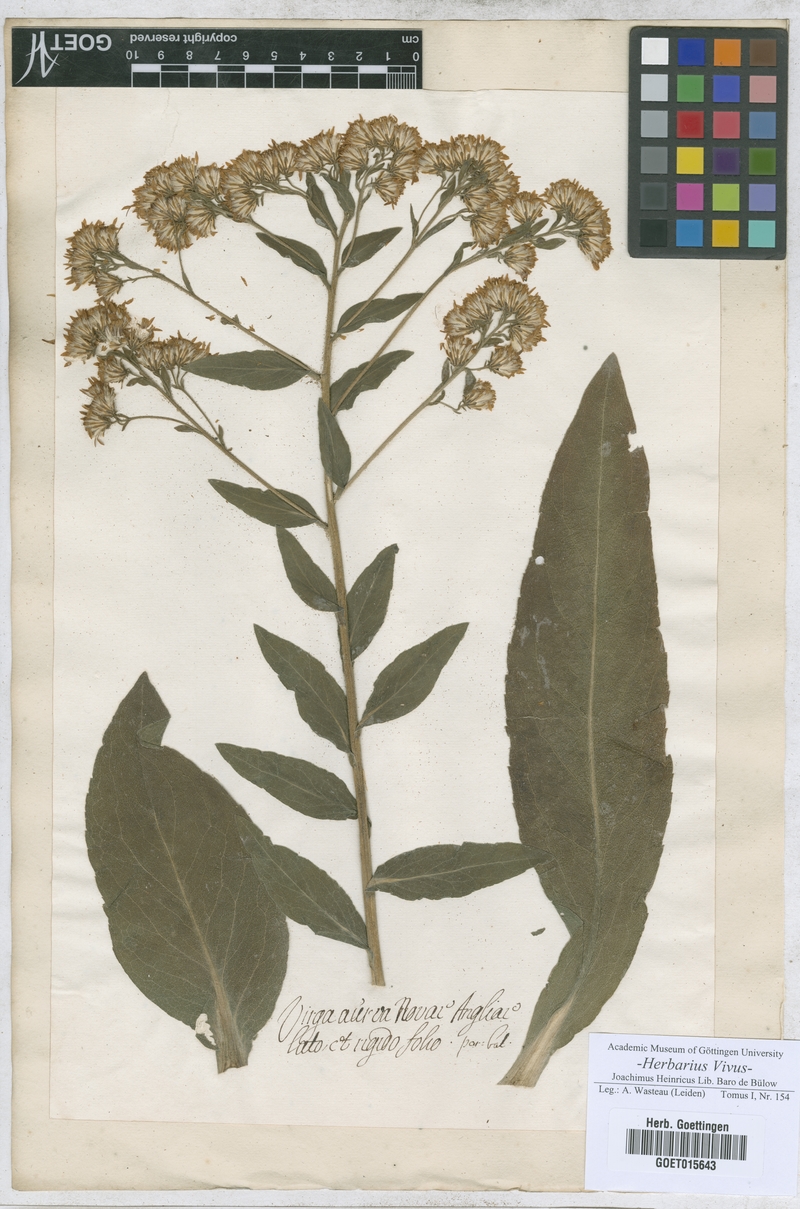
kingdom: Animalia
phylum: Arthropoda
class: Insecta
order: Lepidoptera
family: Hesperiidae
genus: Virga
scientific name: Virga
